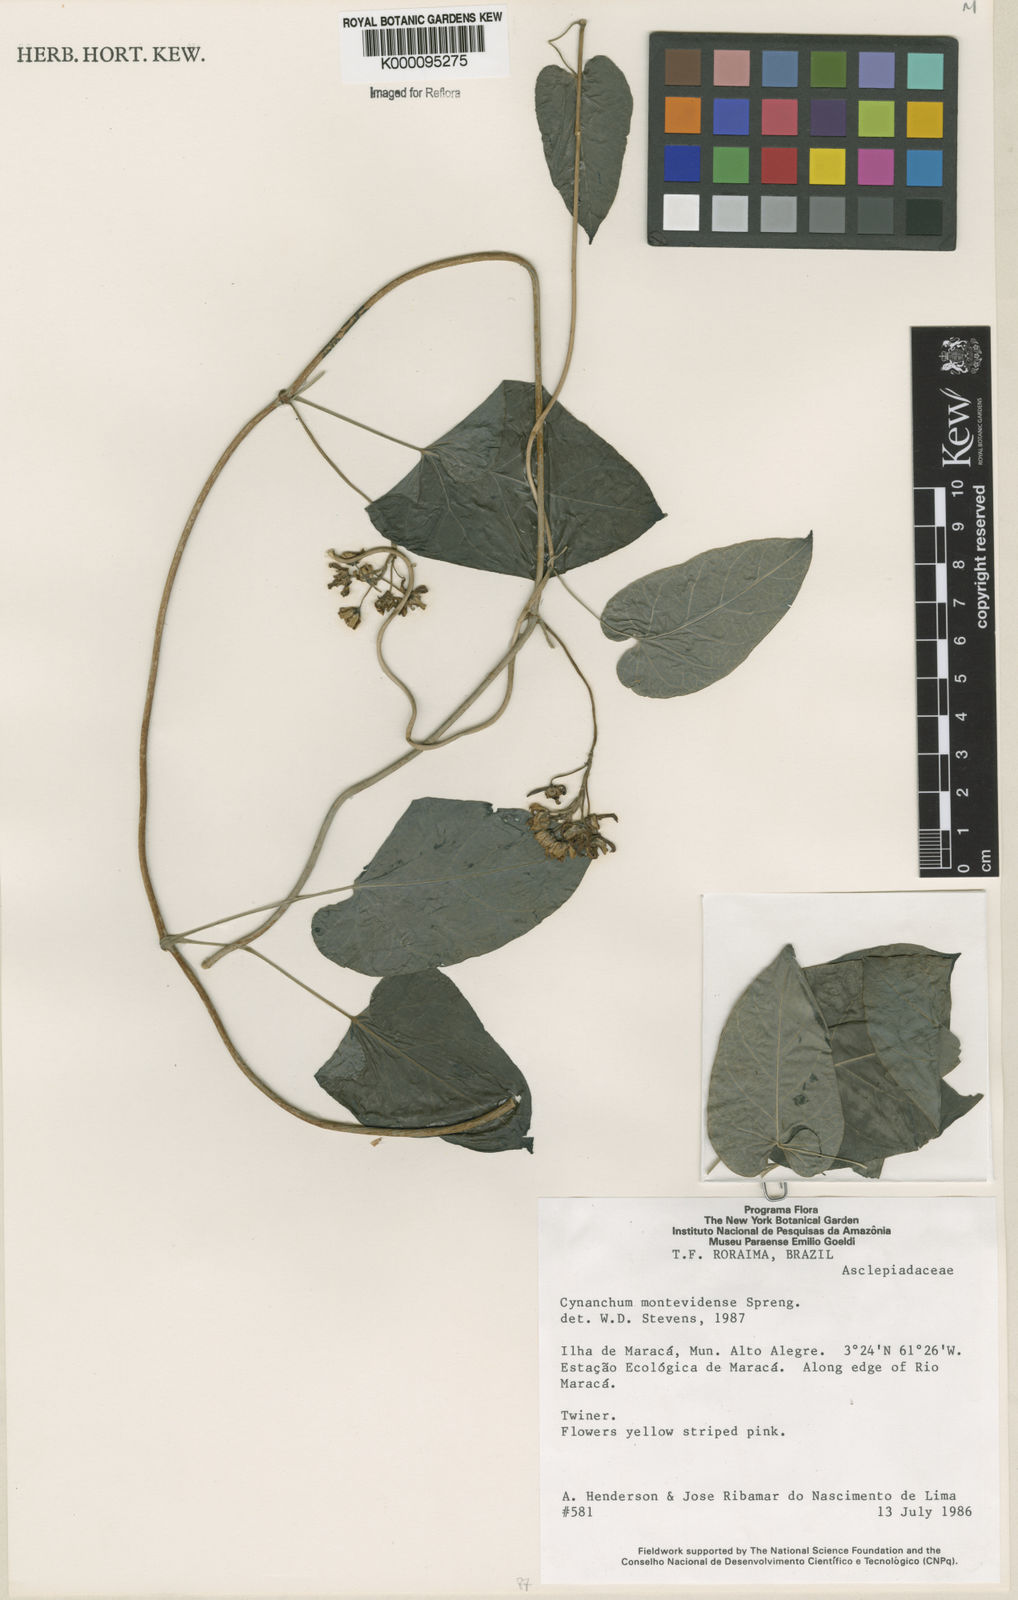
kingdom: Plantae
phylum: Tracheophyta
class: Magnoliopsida
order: Gentianales
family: Apocynaceae
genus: Cynanchum
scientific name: Cynanchum montevidense
